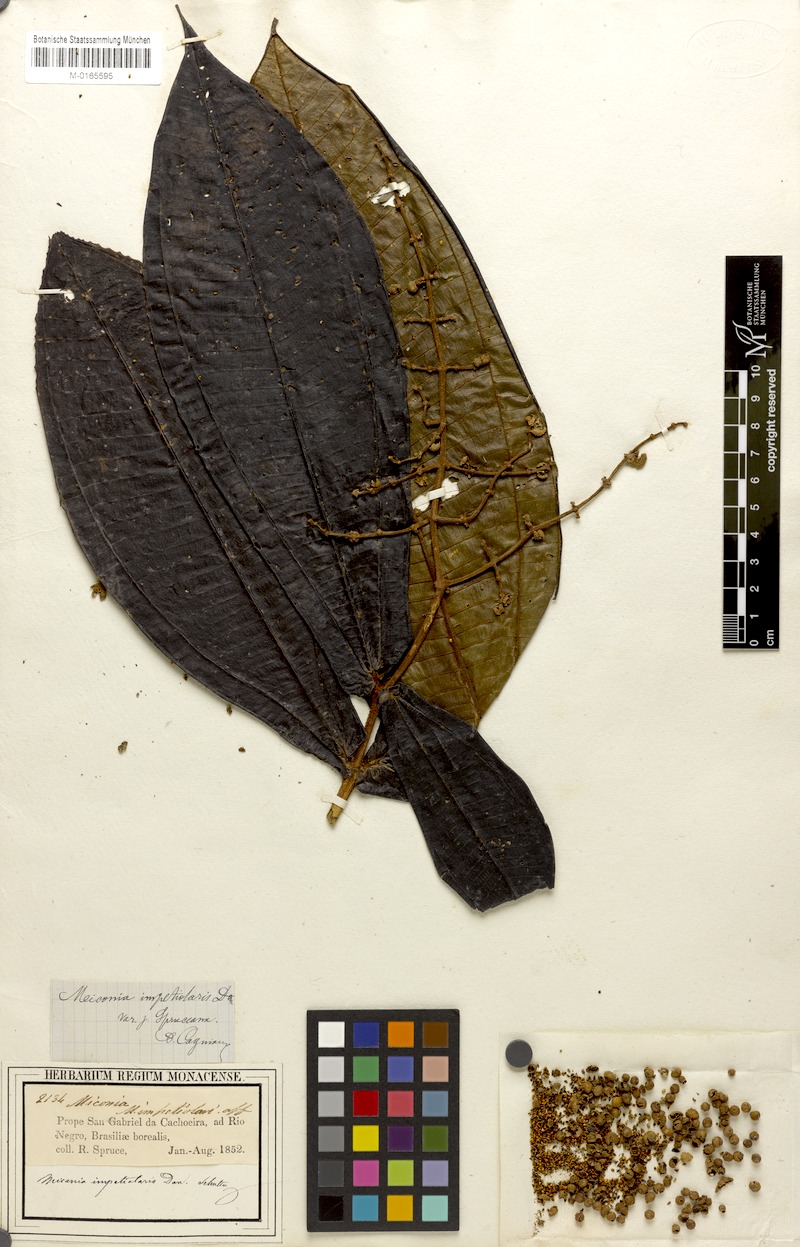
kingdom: Plantae
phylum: Tracheophyta
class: Magnoliopsida
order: Myrtales
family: Melastomataceae
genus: Miconia
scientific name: Miconia impetiolaris
